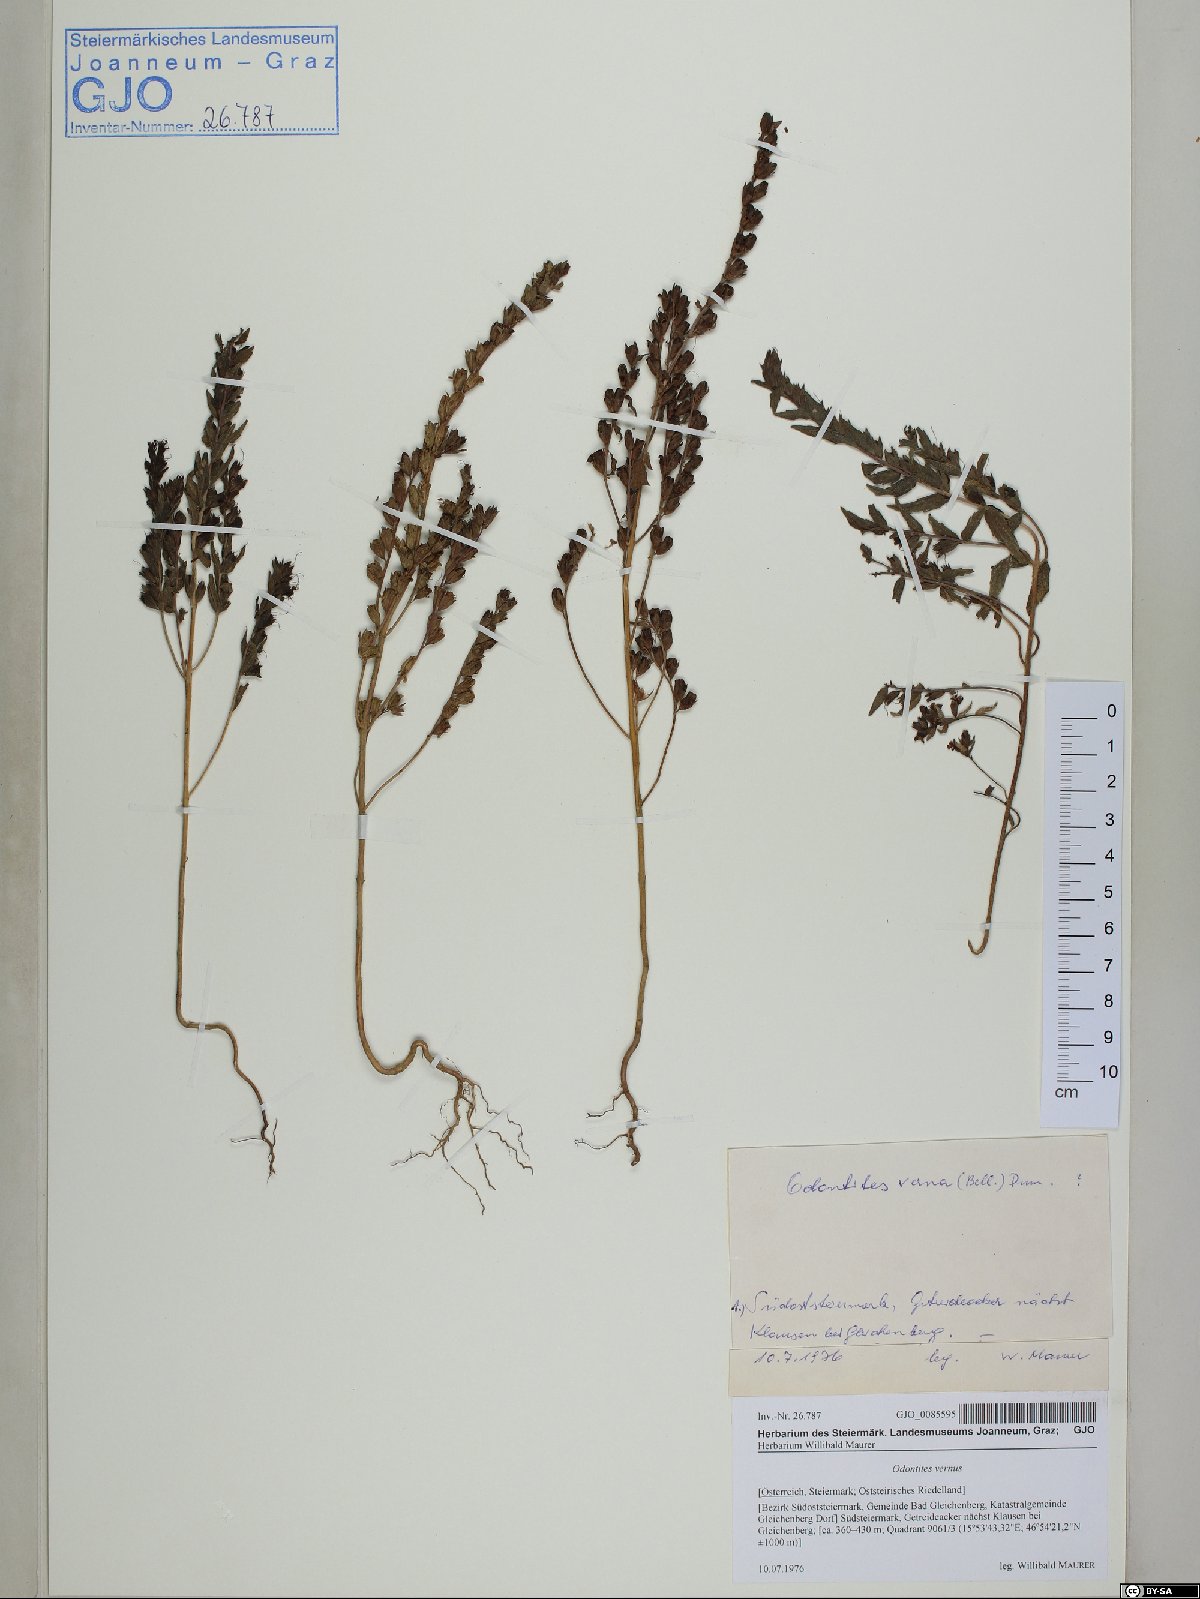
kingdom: Plantae
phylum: Tracheophyta
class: Magnoliopsida
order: Lamiales
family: Orobanchaceae
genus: Odontites
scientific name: Odontites vernus
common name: Red bartsia
